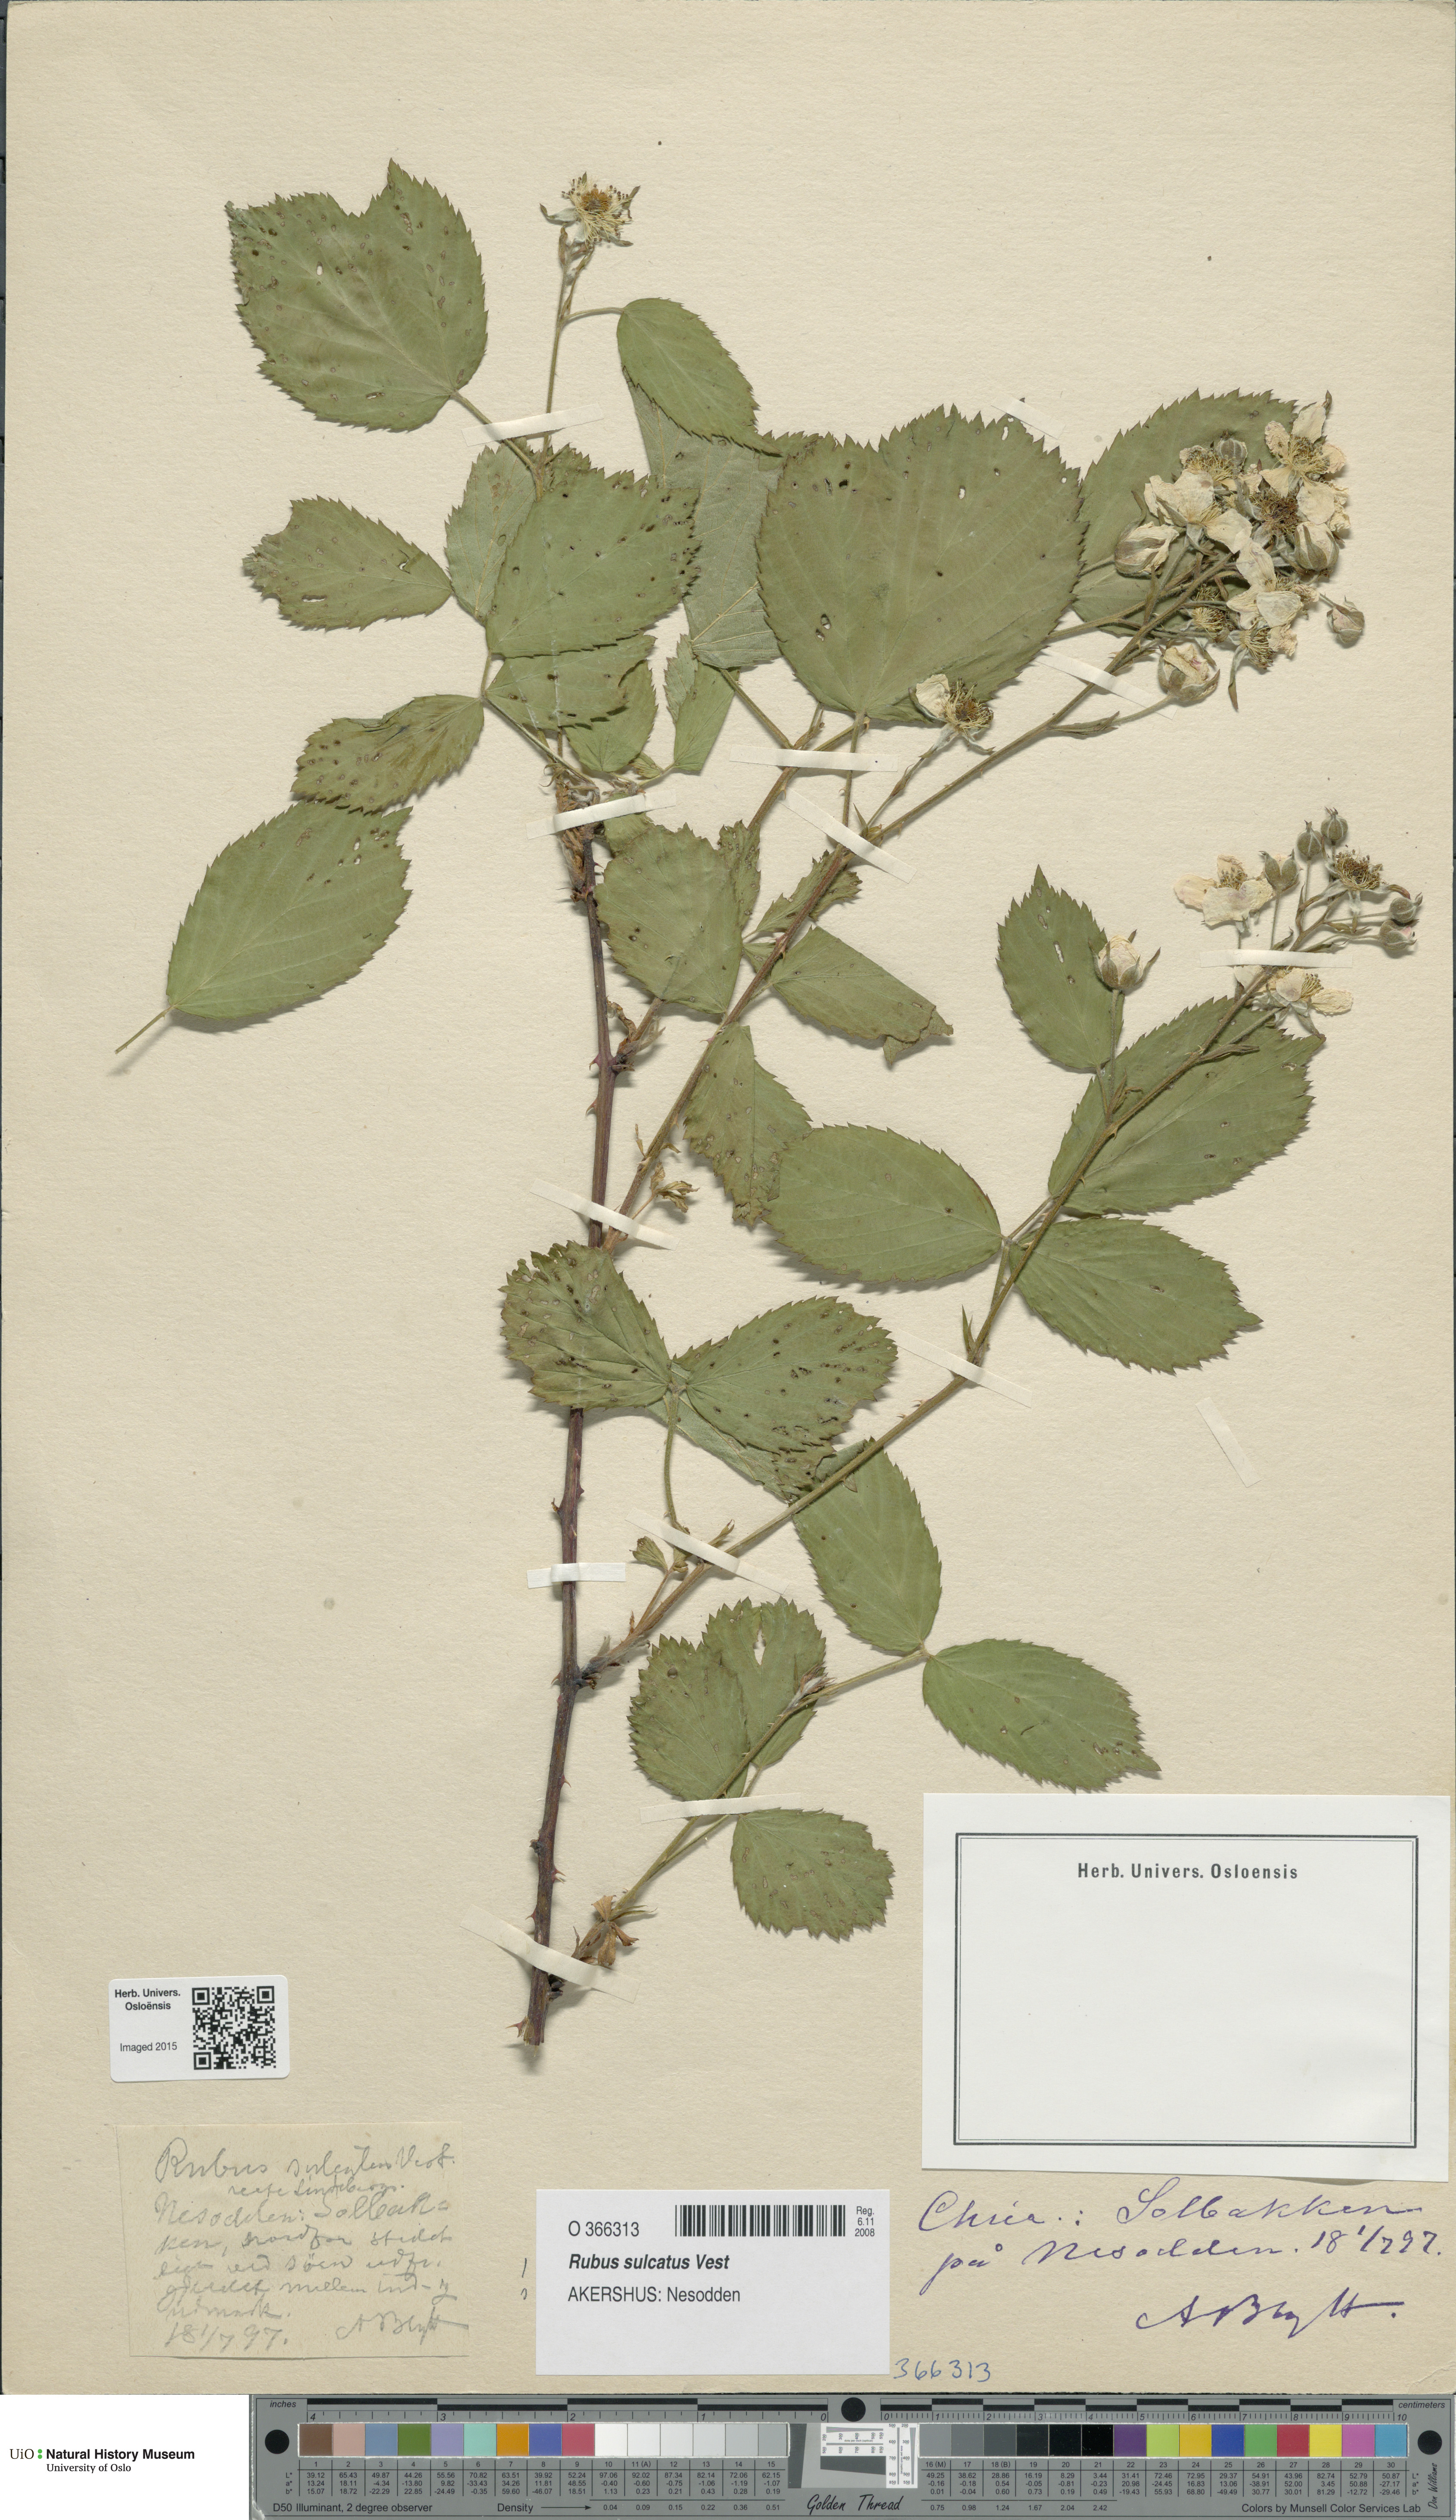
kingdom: Plantae
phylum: Tracheophyta
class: Magnoliopsida
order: Rosales
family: Rosaceae
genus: Rubus
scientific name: Rubus sulcatus
